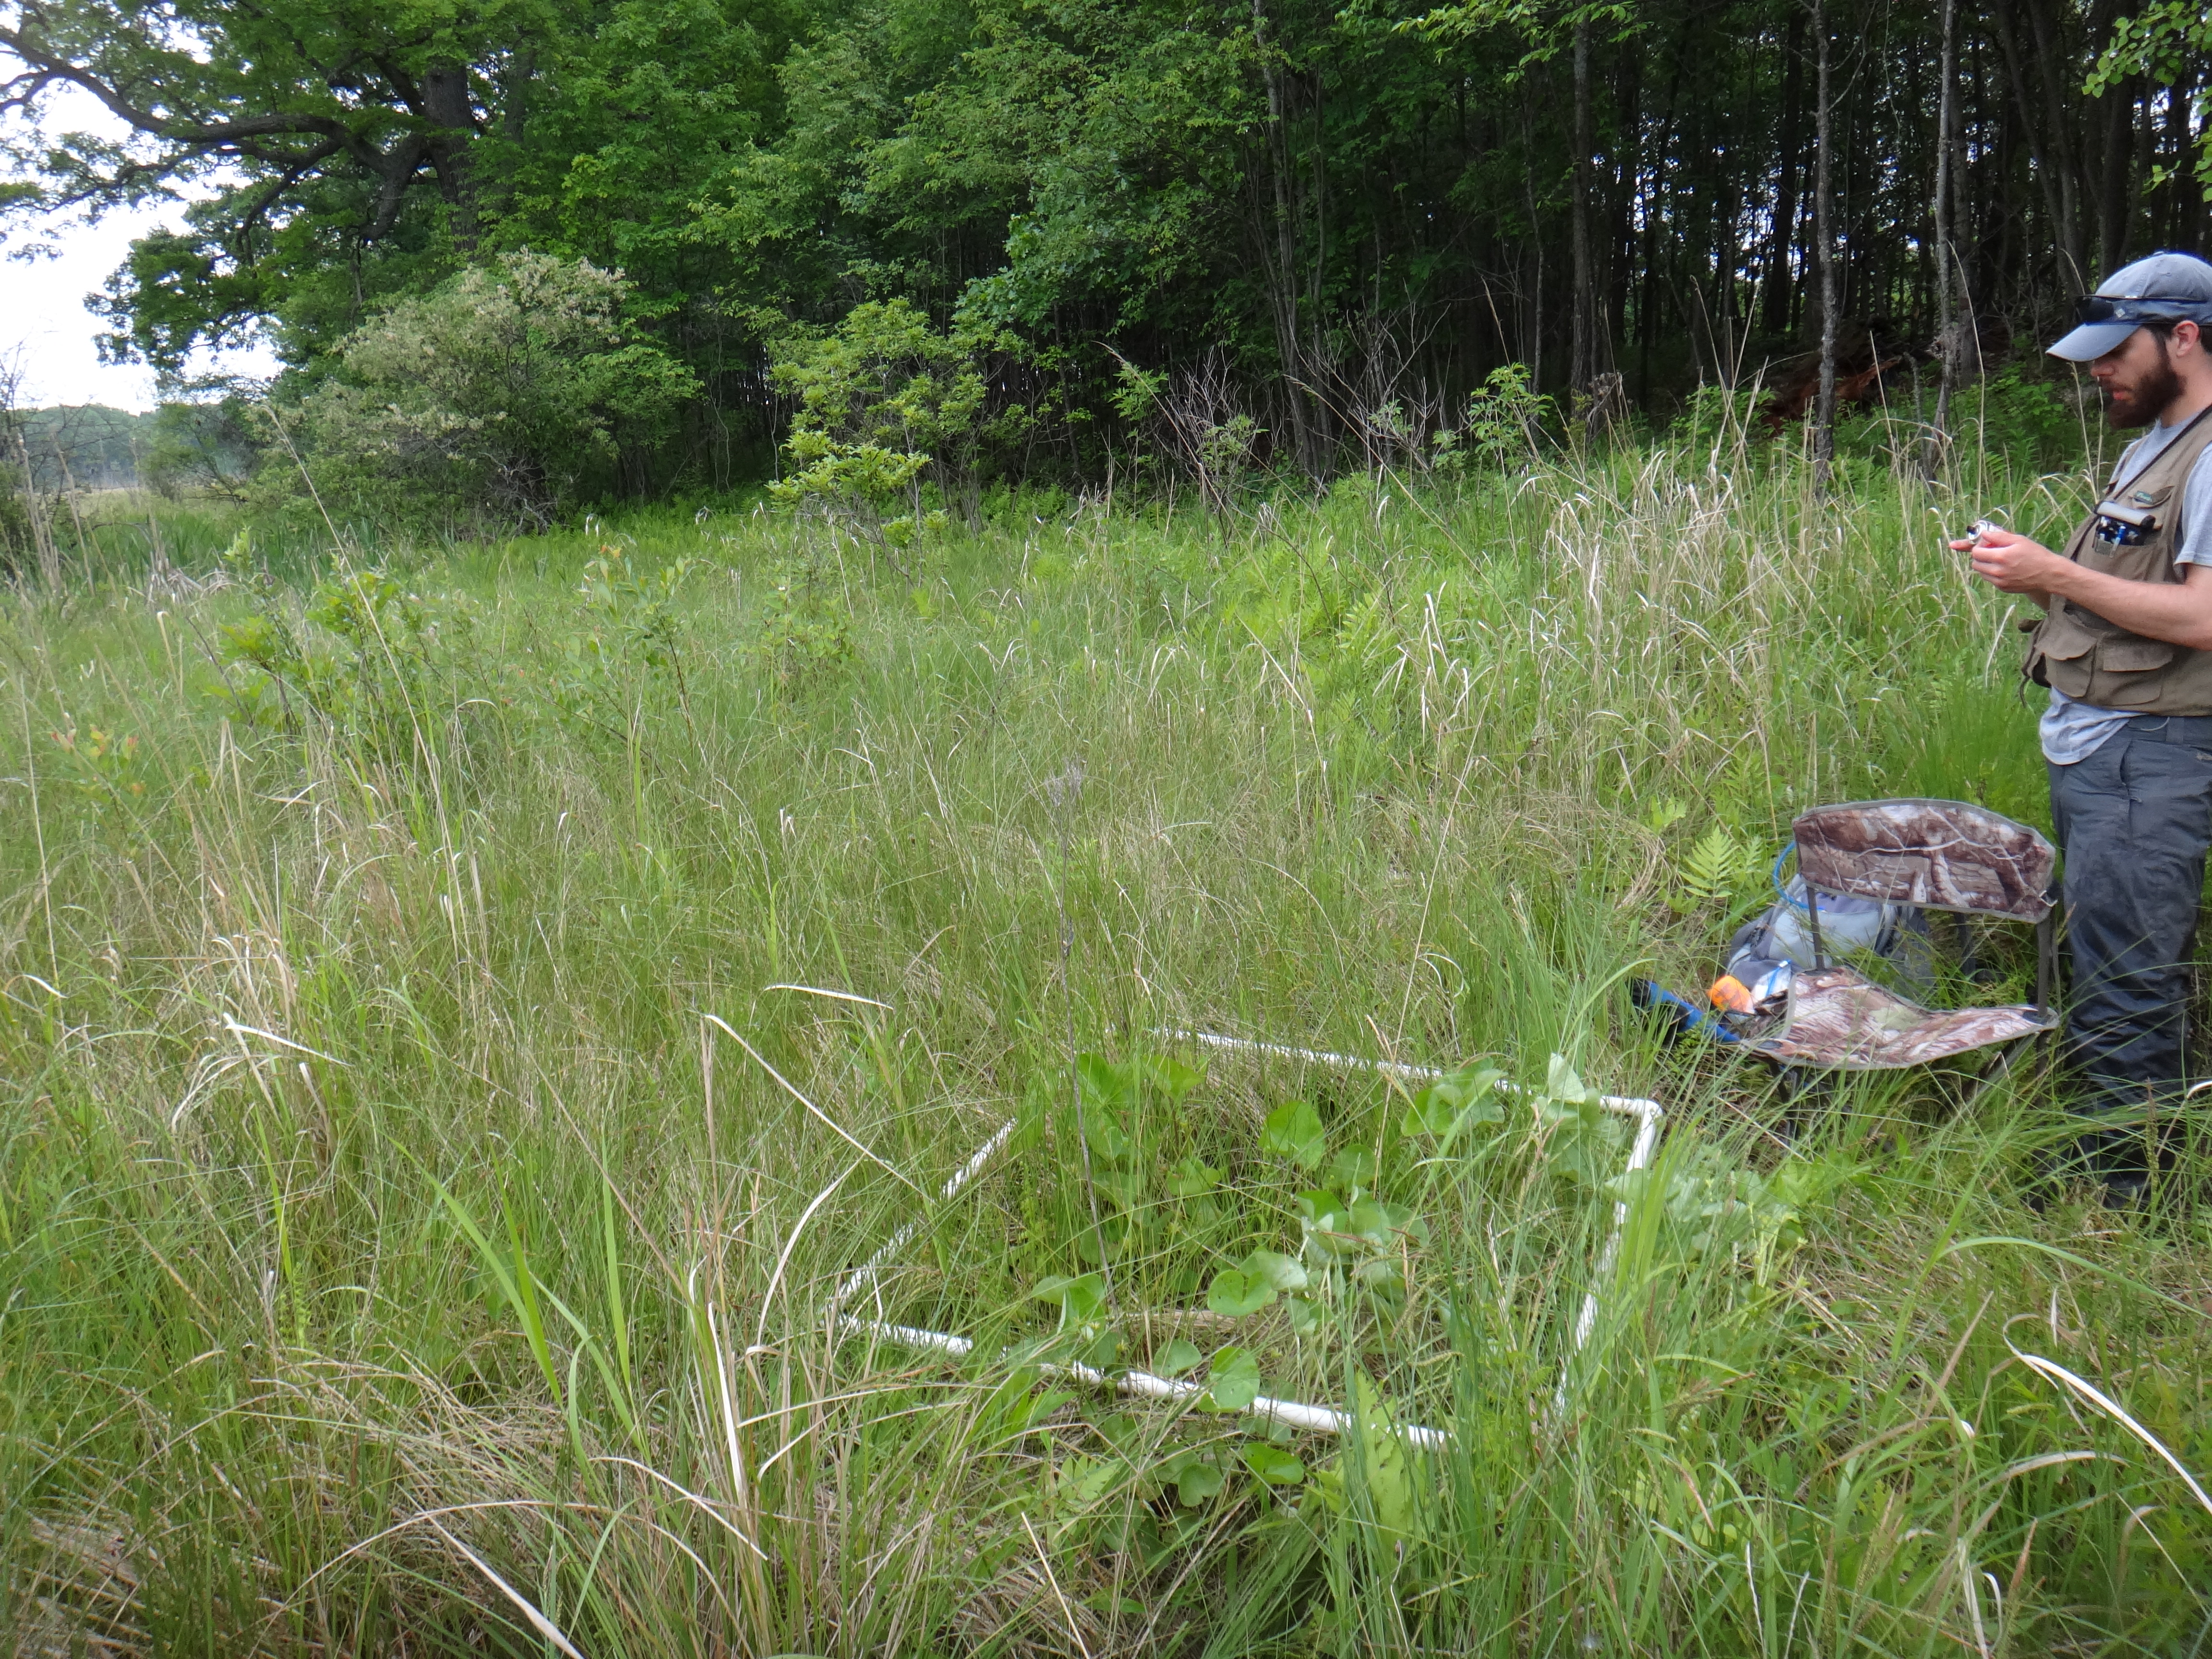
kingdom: Plantae
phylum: Tracheophyta
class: Polypodiopsida
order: Polypodiales
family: Thelypteridaceae
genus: Thelypteris
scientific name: Thelypteris palustris
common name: Marsh fern
